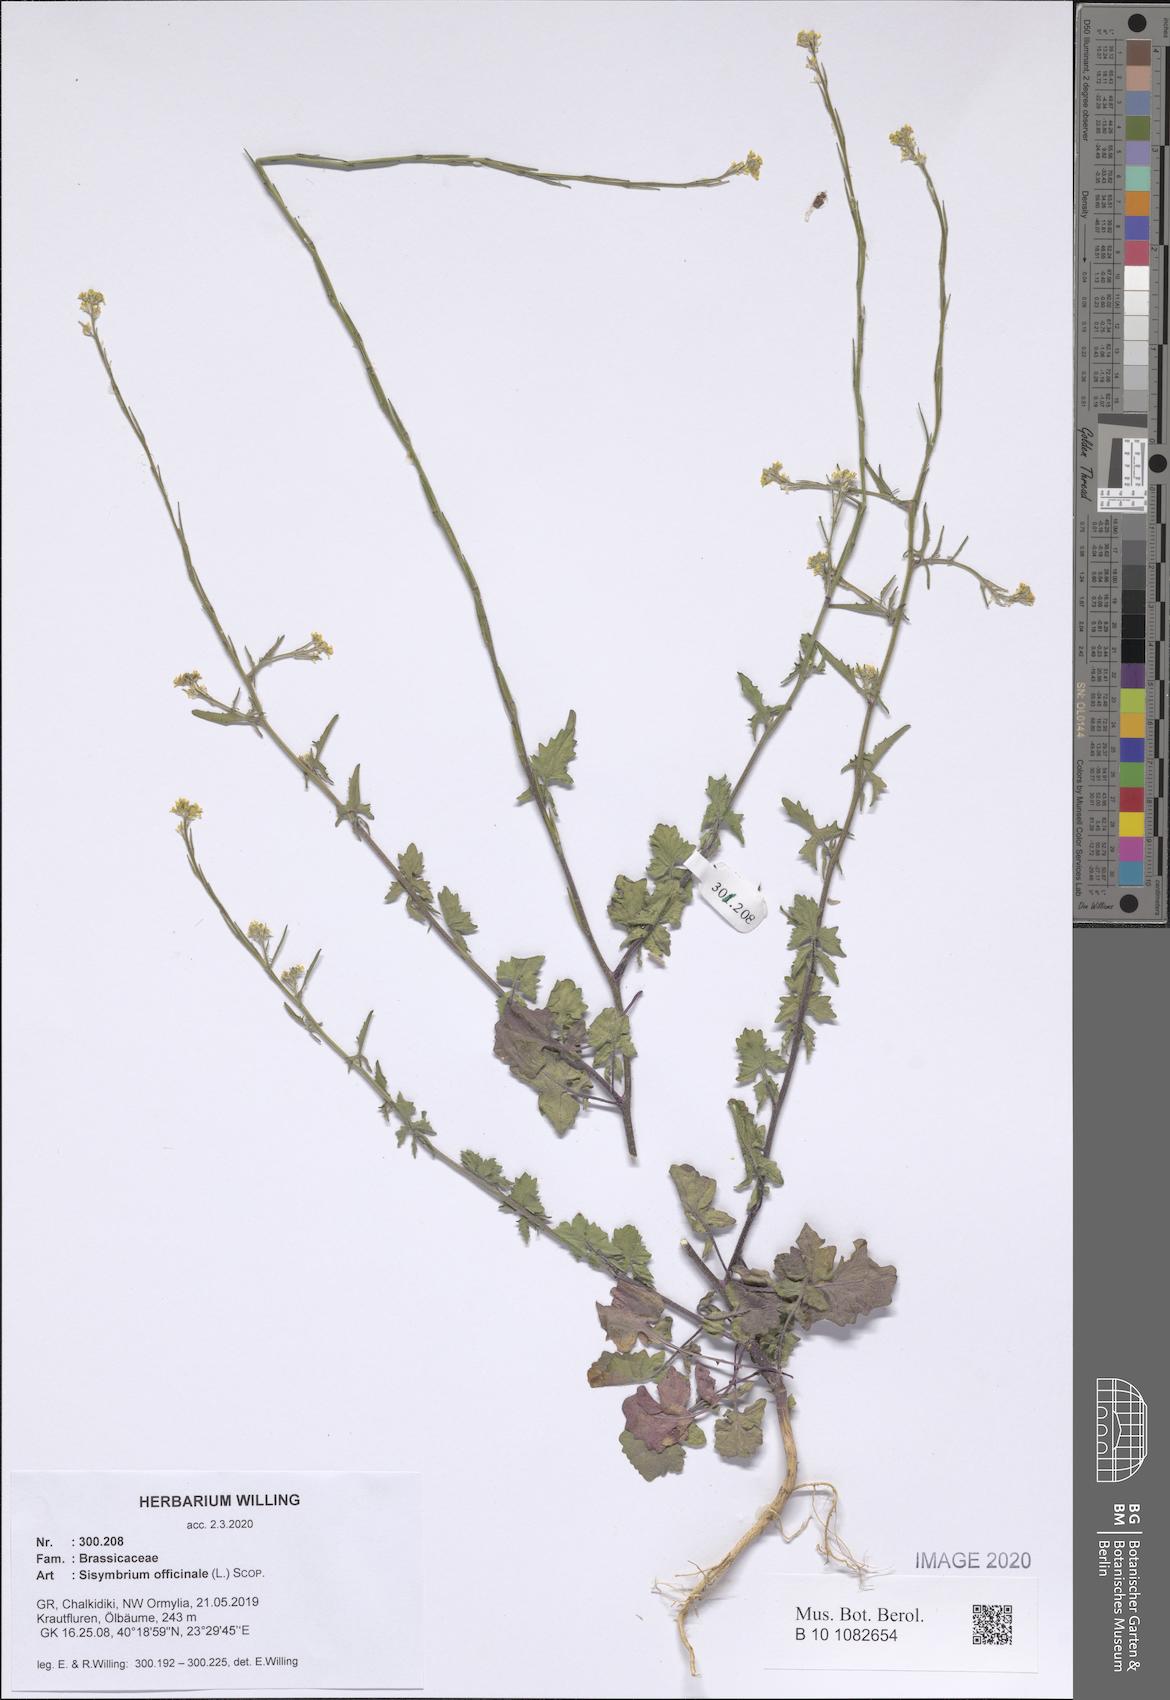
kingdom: Plantae
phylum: Tracheophyta
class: Magnoliopsida
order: Brassicales
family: Brassicaceae
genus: Sisymbrium
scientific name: Sisymbrium officinale
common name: Hedge mustard
